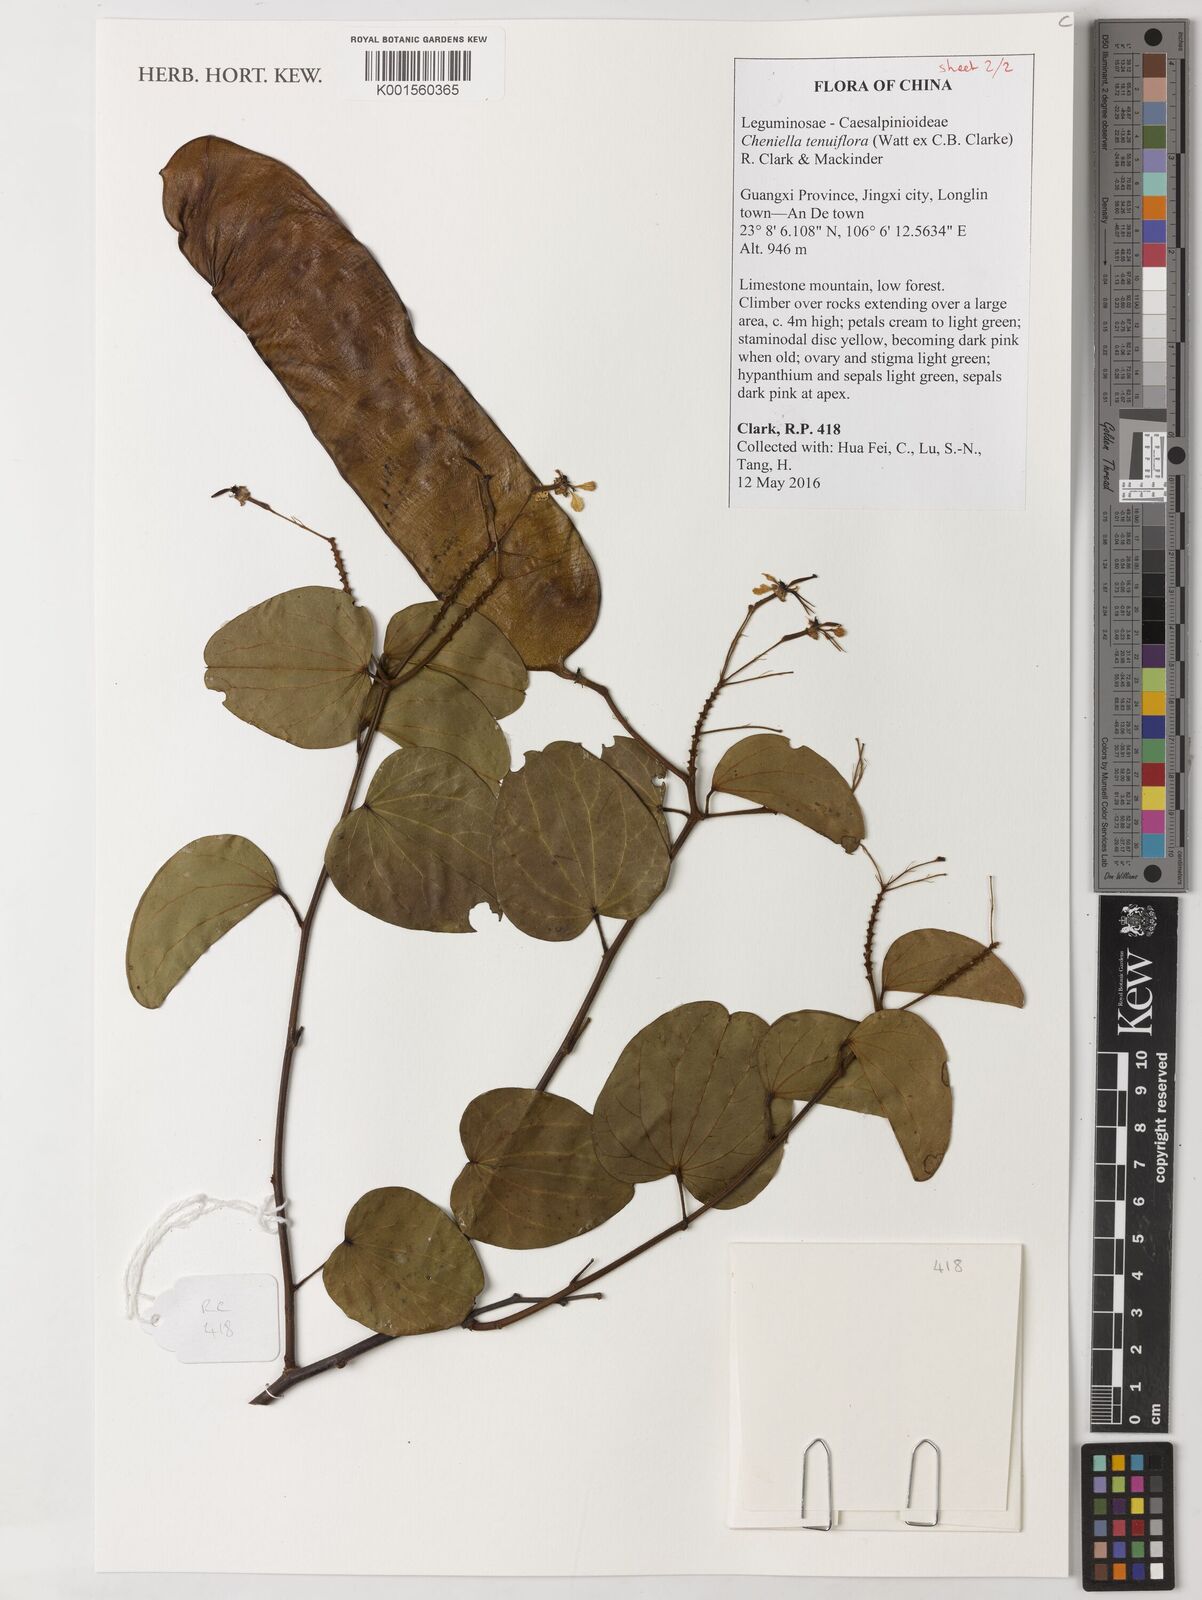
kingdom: Plantae
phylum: Tracheophyta
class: Magnoliopsida
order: Fabales
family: Fabaceae
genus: Cheniella
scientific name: Cheniella tenuiflora
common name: Bauhinia
